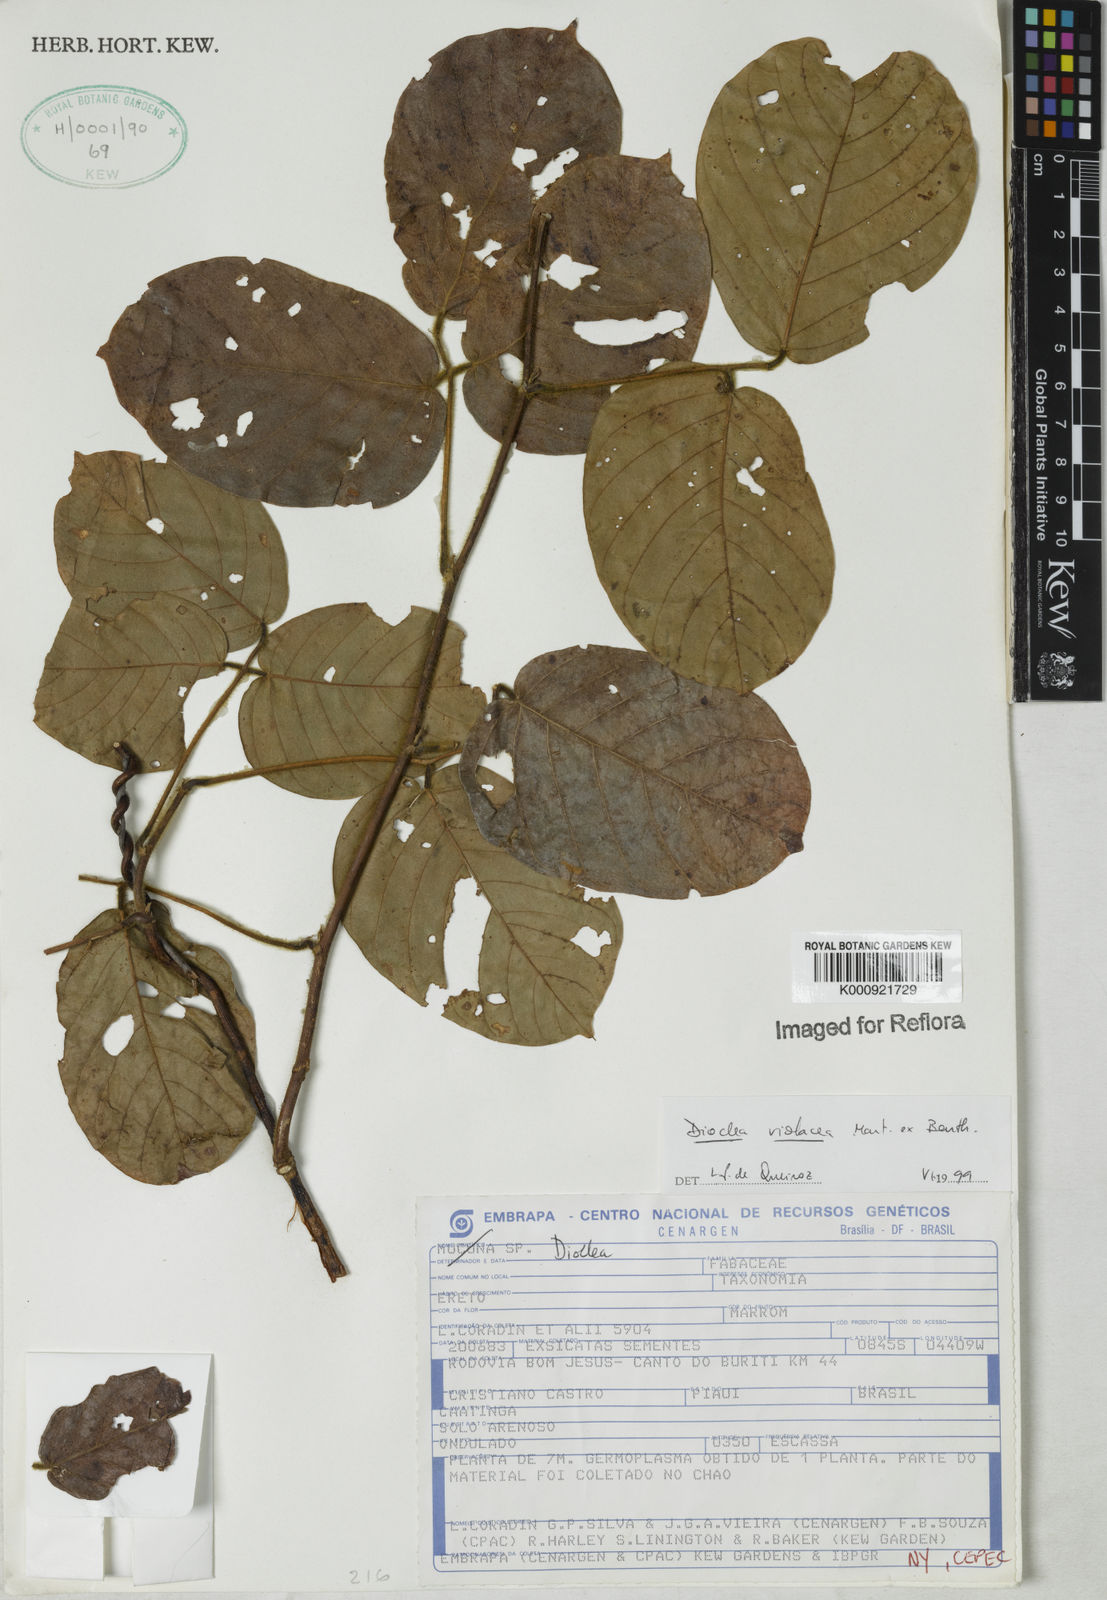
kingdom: Plantae
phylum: Tracheophyta
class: Magnoliopsida
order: Fabales
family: Fabaceae
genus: Macropsychanthus
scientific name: Macropsychanthus violaceus
